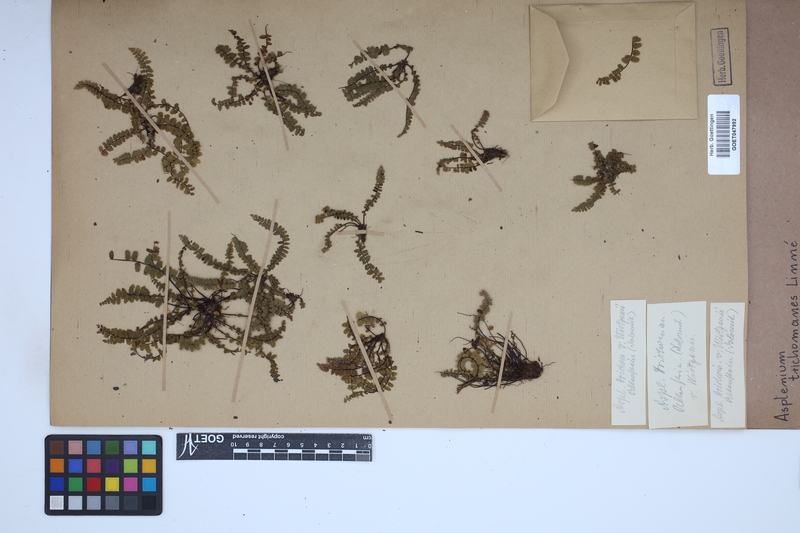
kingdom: Plantae
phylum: Tracheophyta
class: Polypodiopsida
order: Polypodiales
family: Aspleniaceae
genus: Asplenium
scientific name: Asplenium trichomanes
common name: Maidenhair spleenwort
